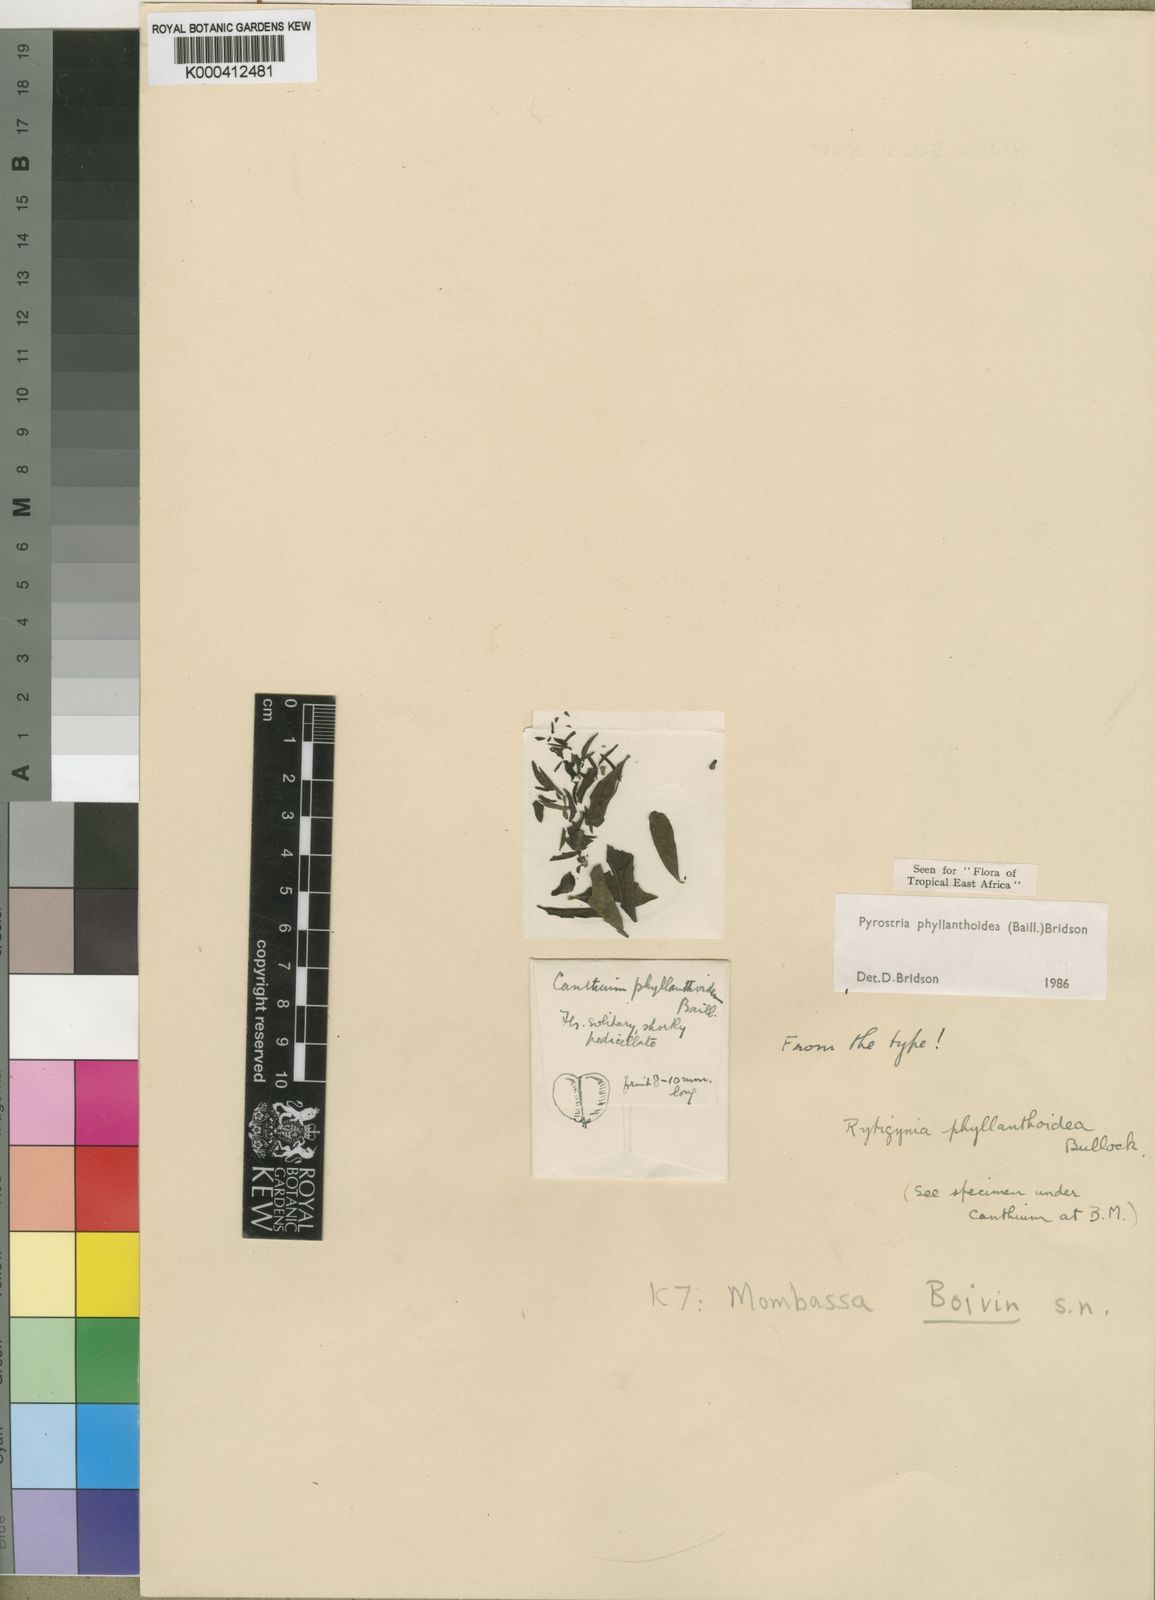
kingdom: Plantae
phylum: Tracheophyta
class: Magnoliopsida
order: Gentianales
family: Rubiaceae
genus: Pyrostria
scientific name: Pyrostria phyllanthoidea
